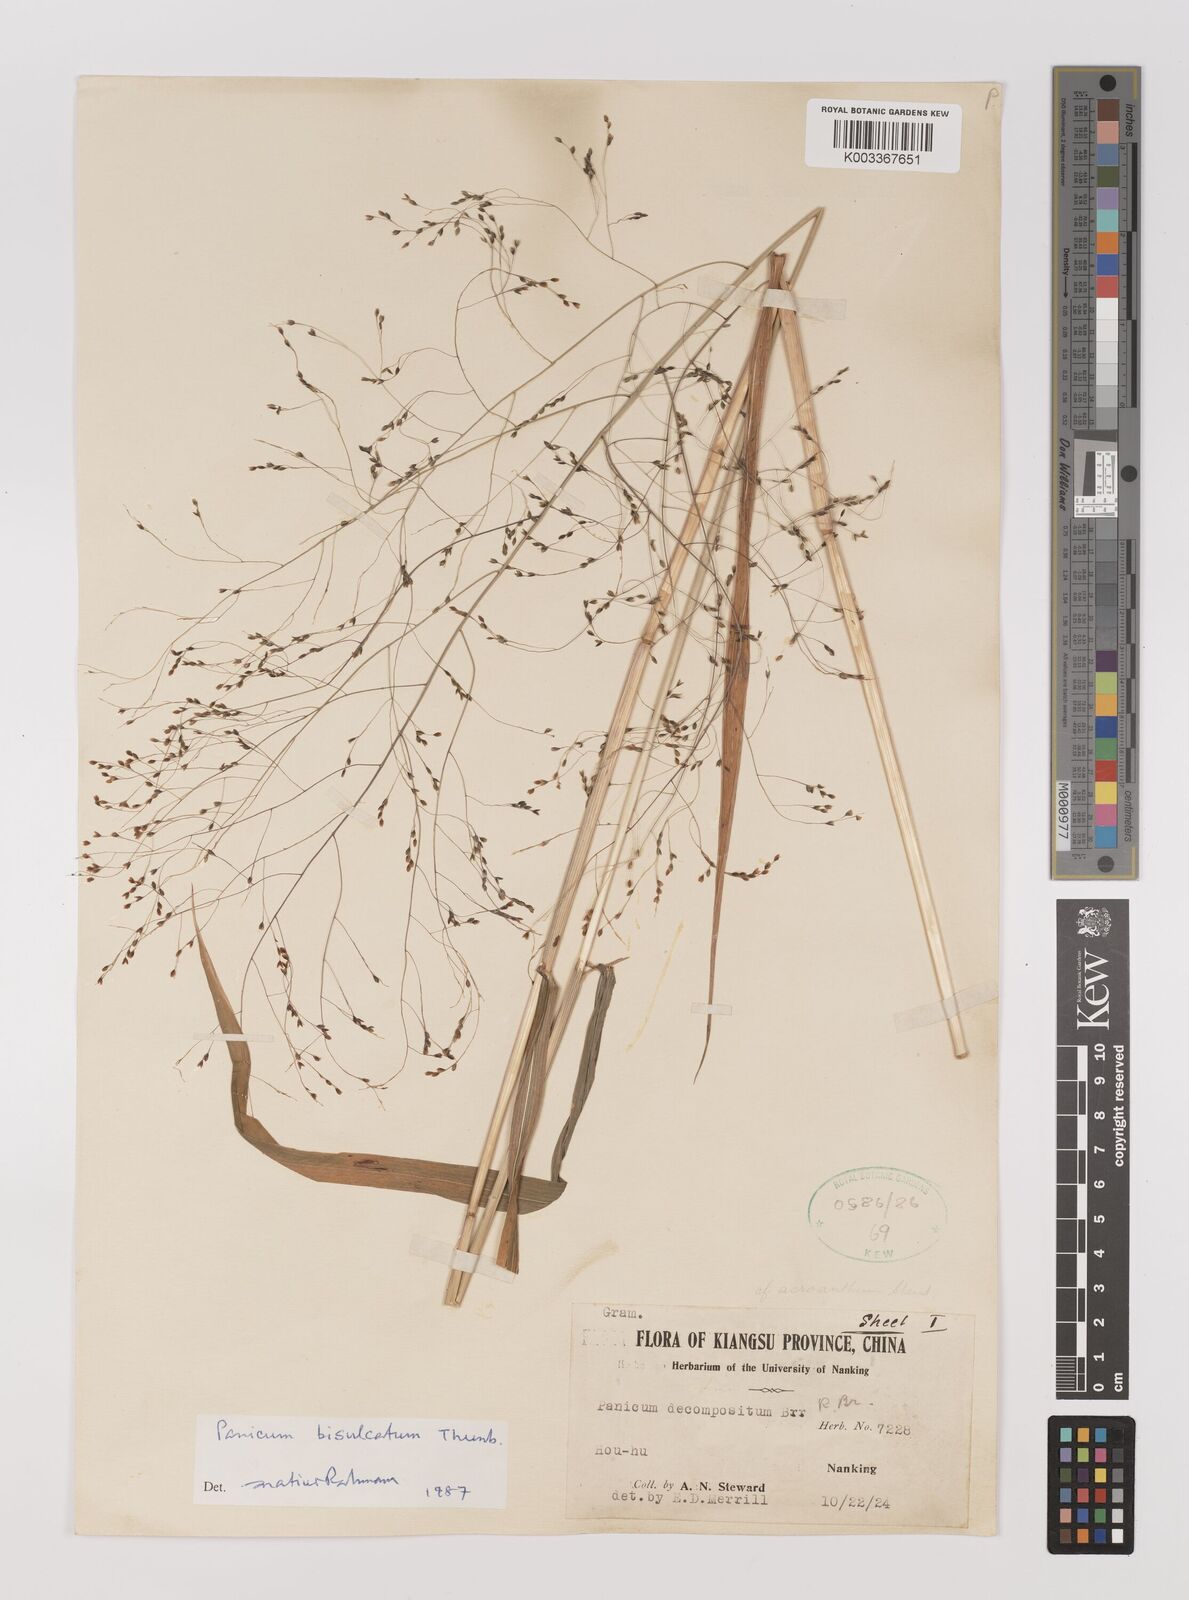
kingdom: Plantae
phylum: Tracheophyta
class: Liliopsida
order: Poales
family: Poaceae
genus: Panicum
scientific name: Panicum bisulcatum
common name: Japanese panicgrass
